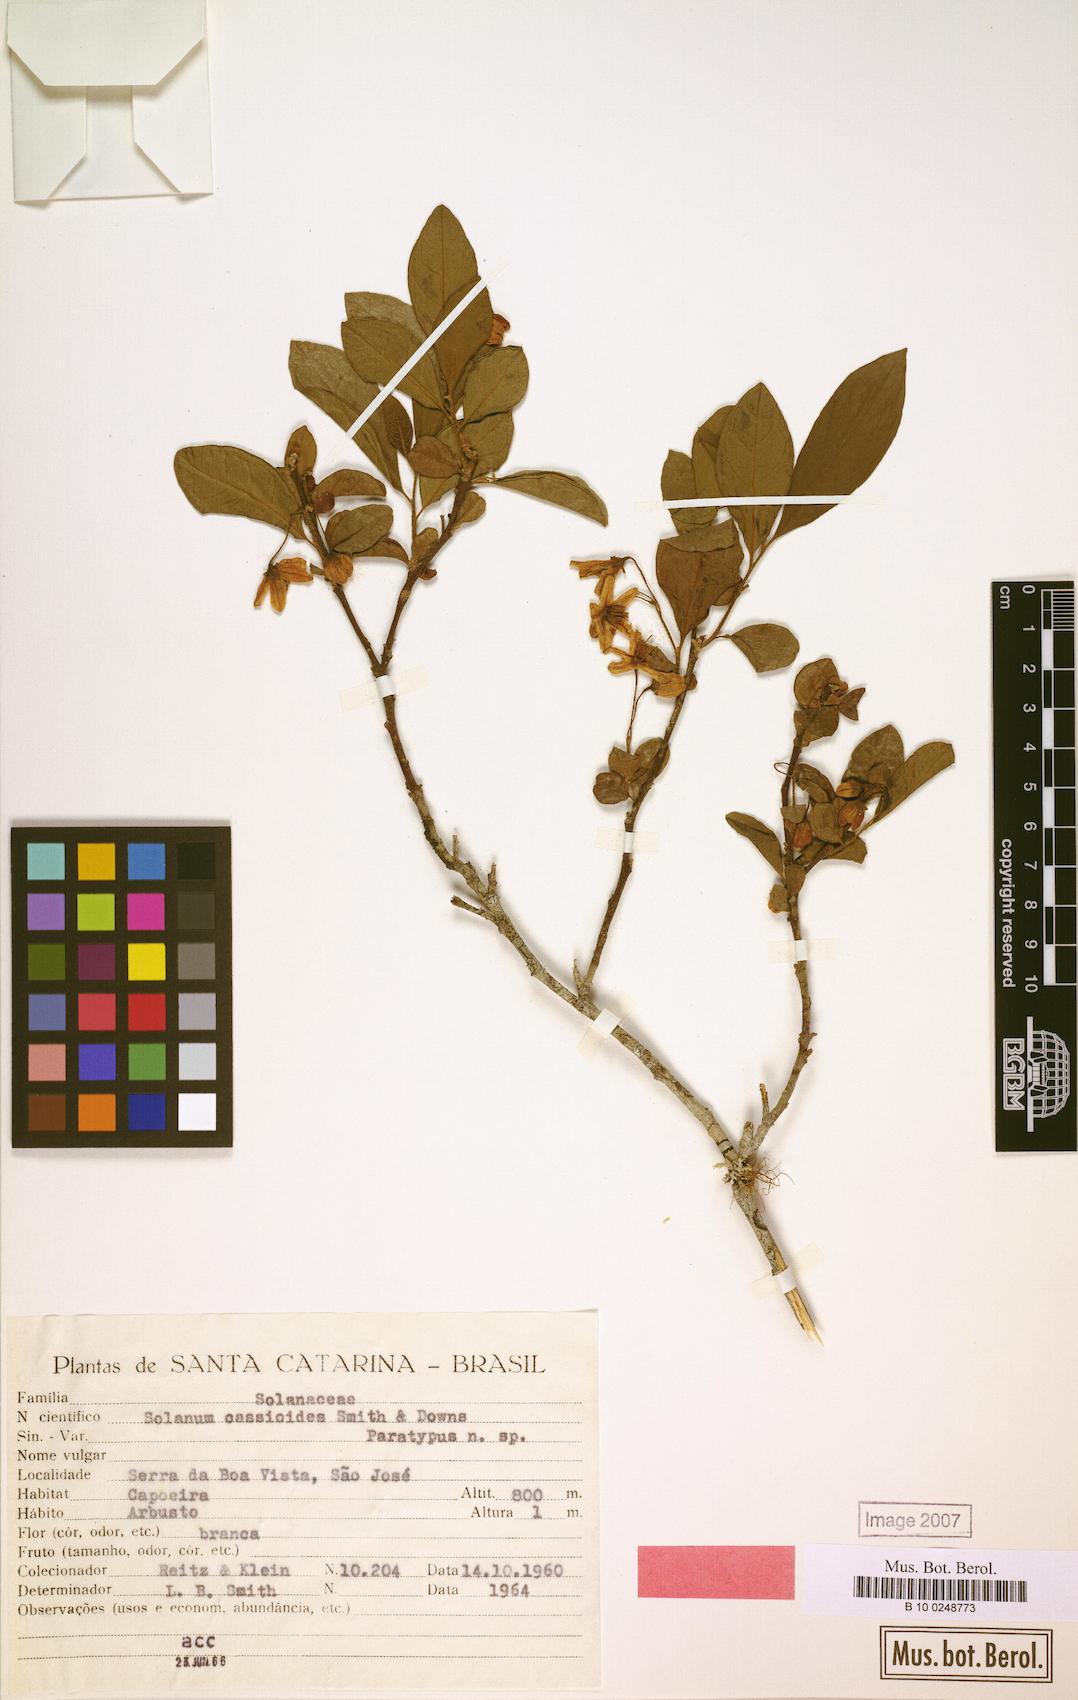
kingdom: Plantae
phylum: Tracheophyta
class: Magnoliopsida
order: Solanales
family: Solanaceae
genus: Solanum
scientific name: Solanum cassioides
